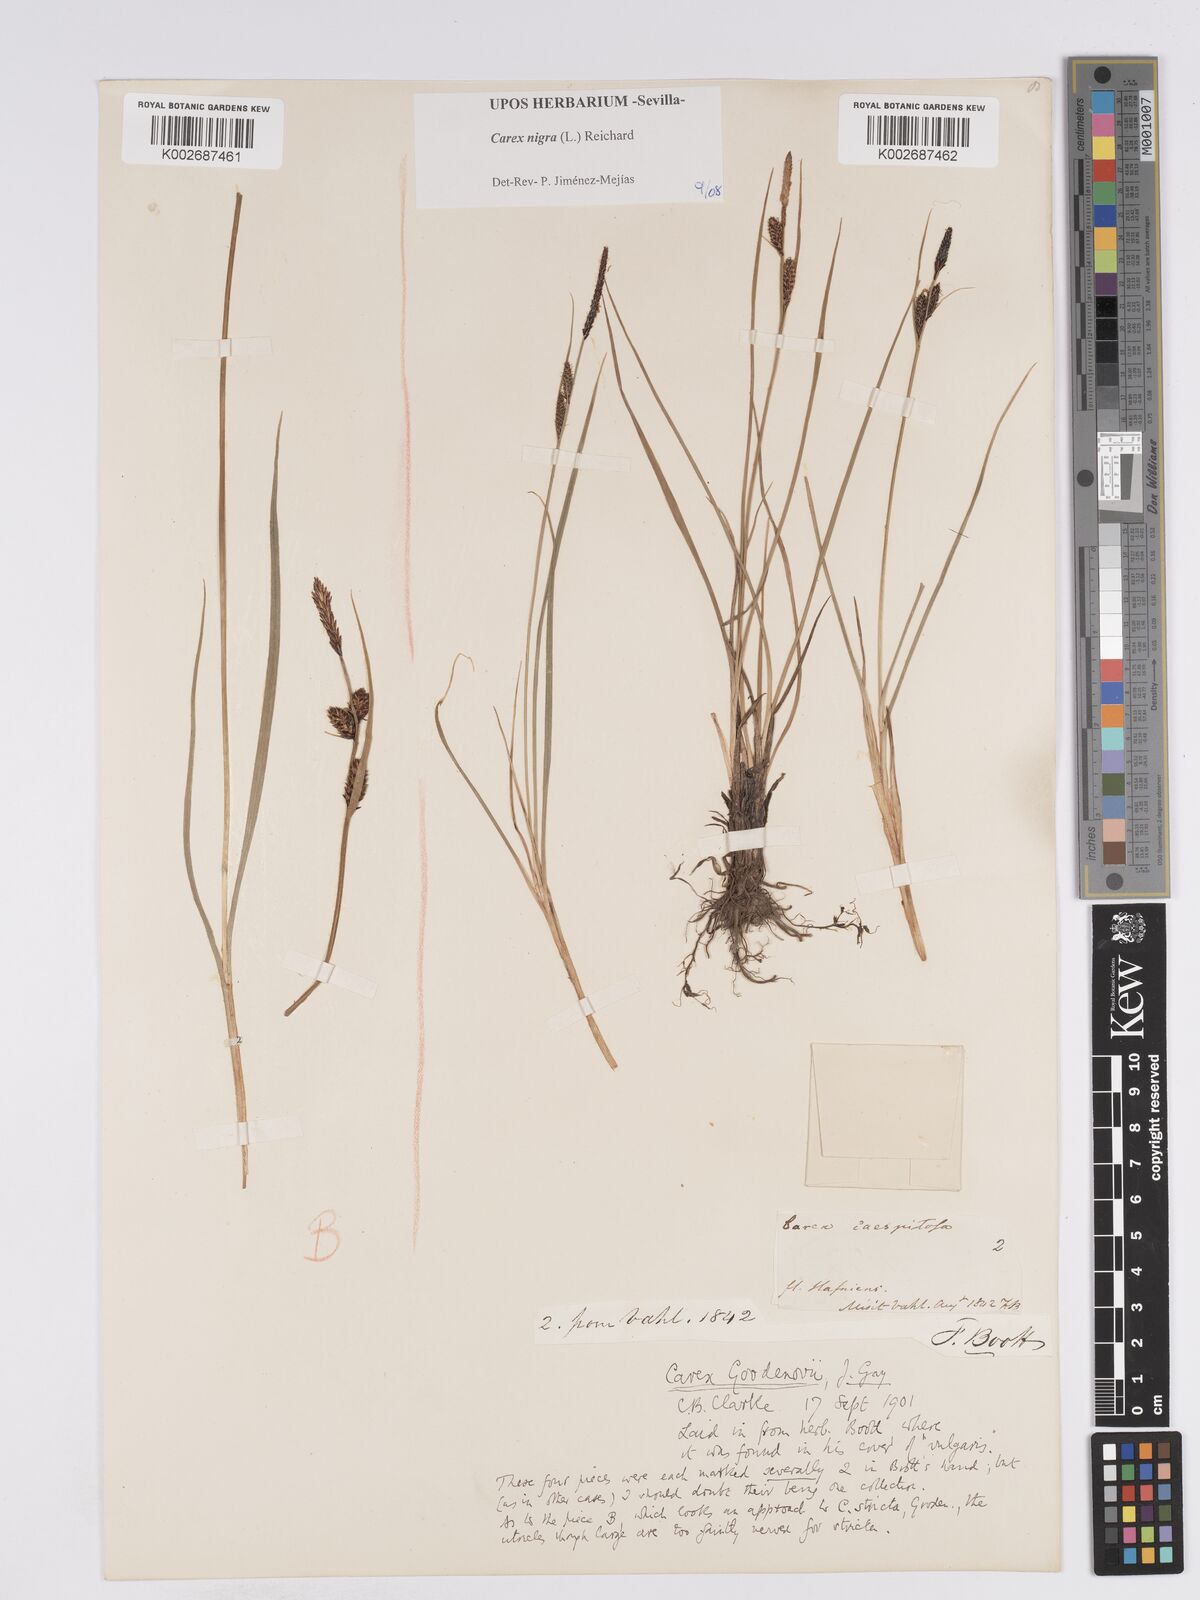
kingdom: Plantae
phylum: Tracheophyta
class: Liliopsida
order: Poales
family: Cyperaceae
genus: Carex
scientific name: Carex nigra
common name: Common sedge
